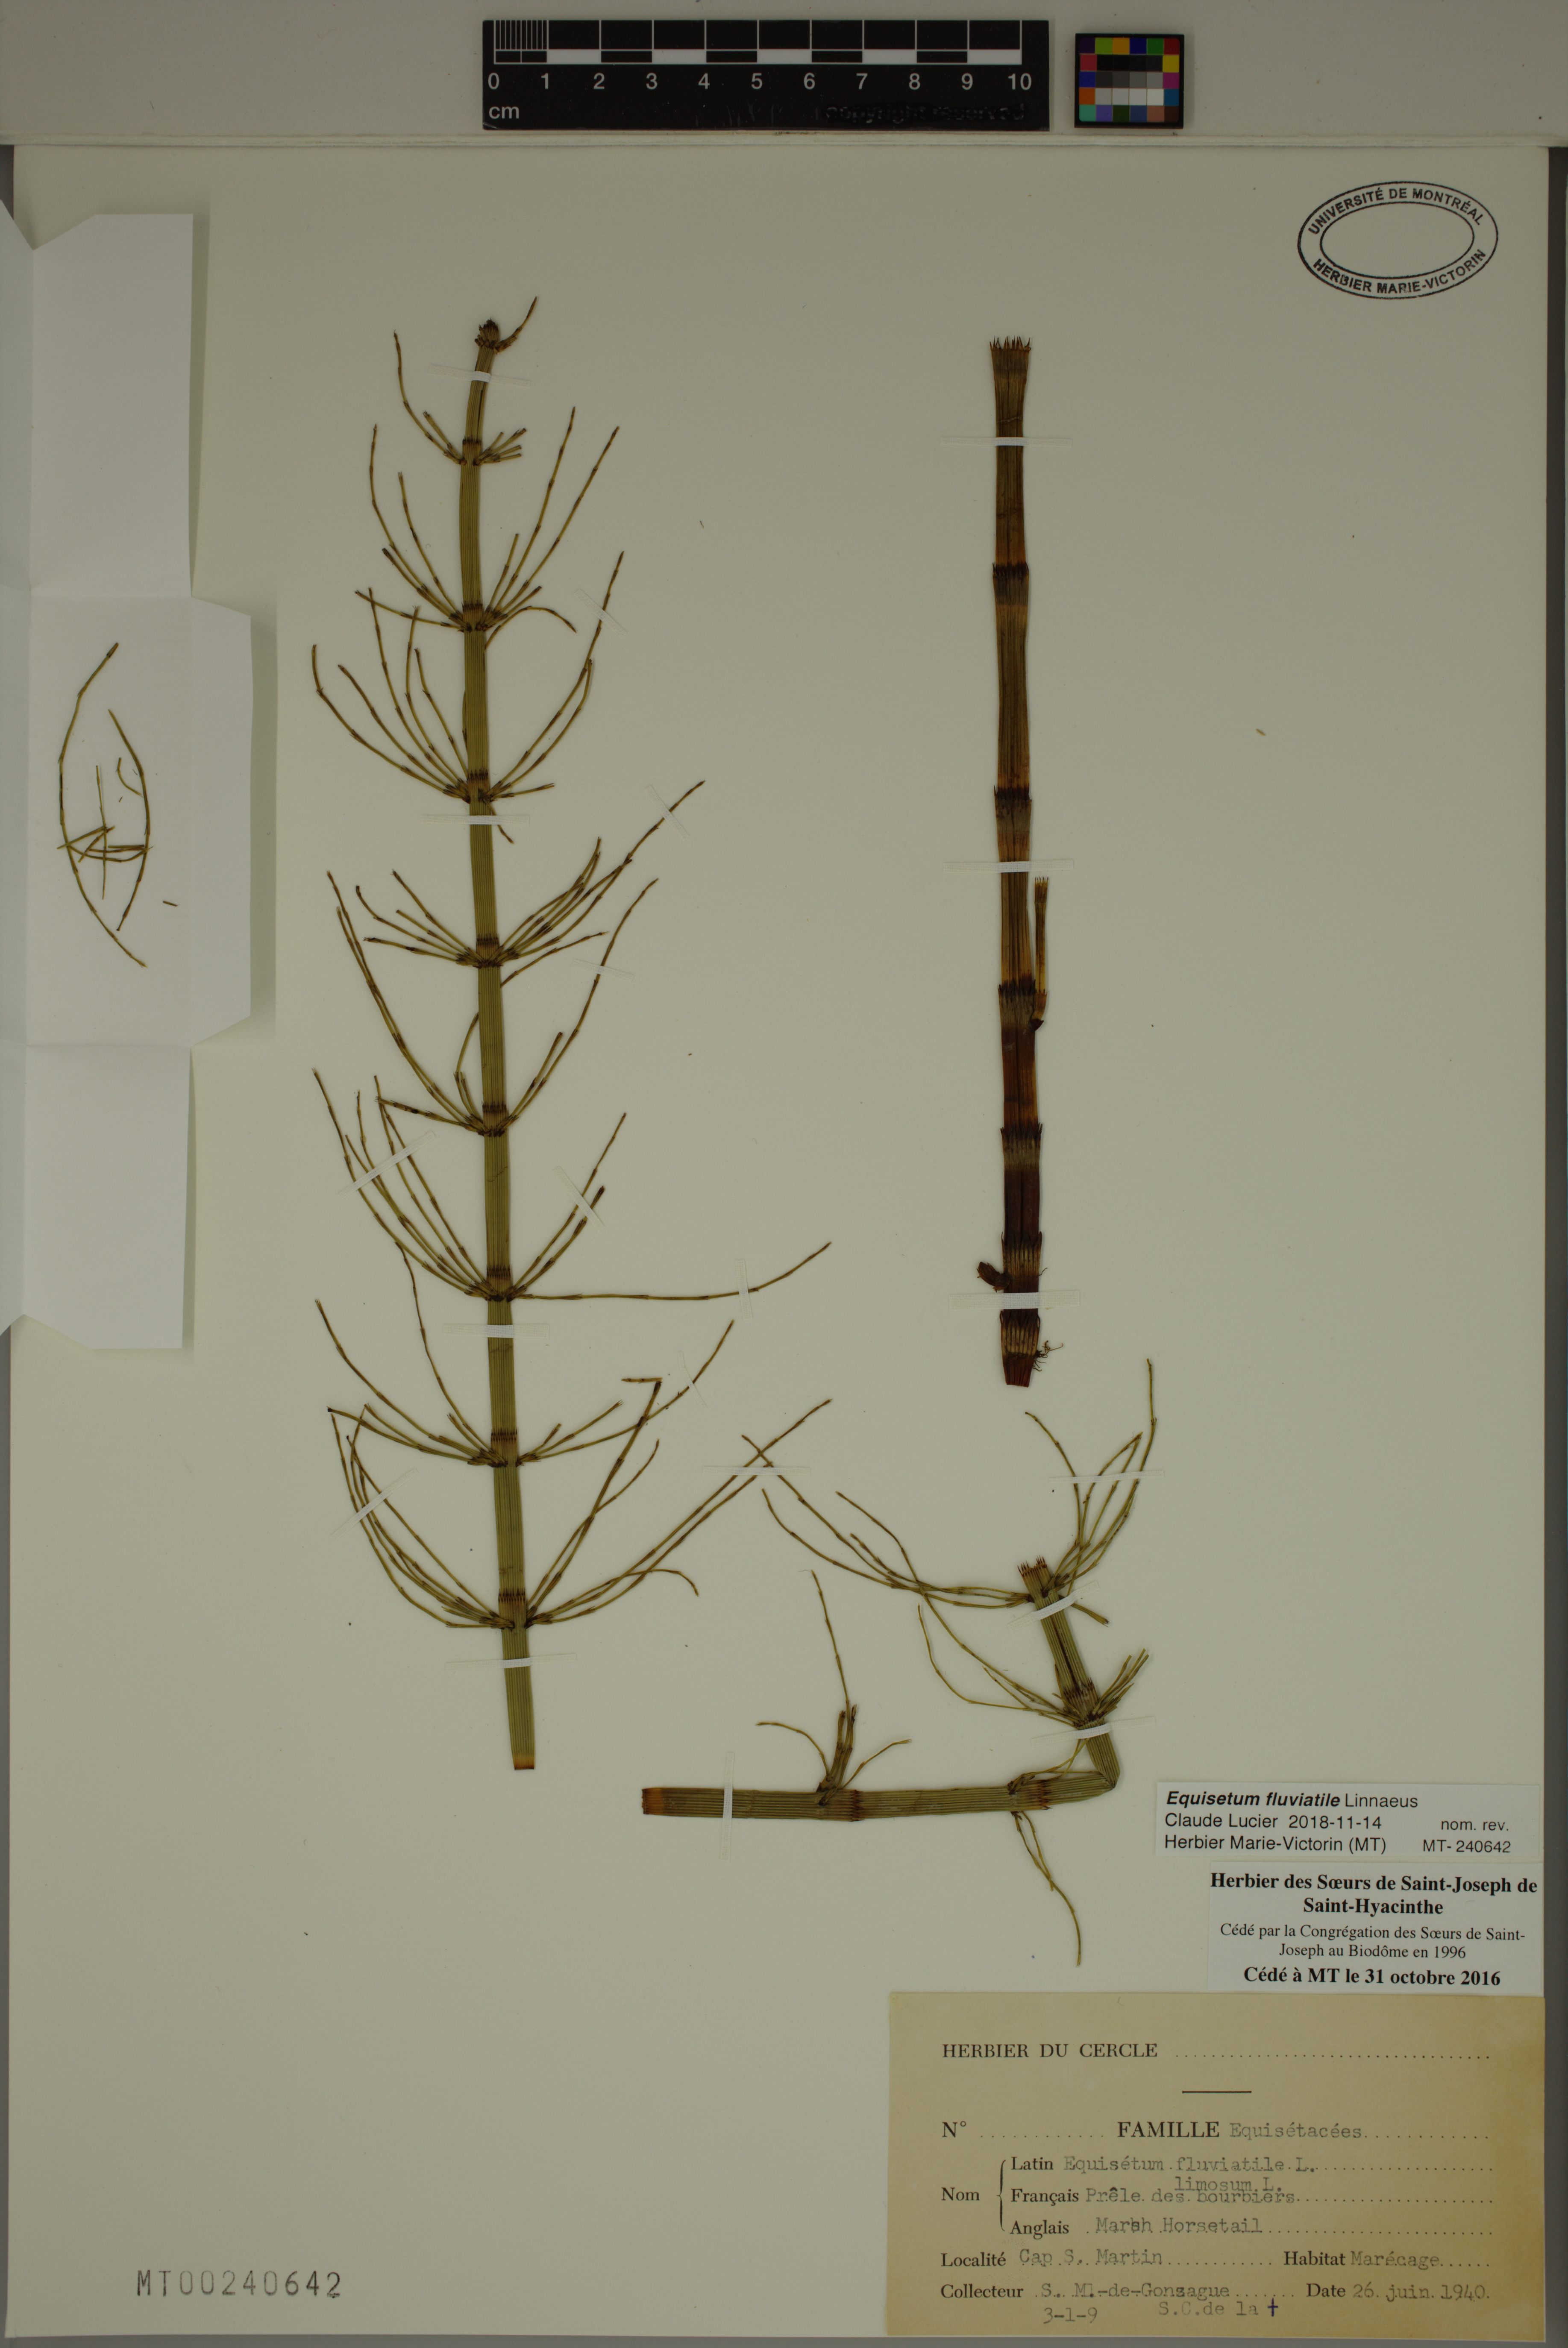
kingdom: Plantae
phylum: Tracheophyta
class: Polypodiopsida
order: Equisetales
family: Equisetaceae
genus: Equisetum
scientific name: Equisetum fluviatile
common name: Water horsetail
